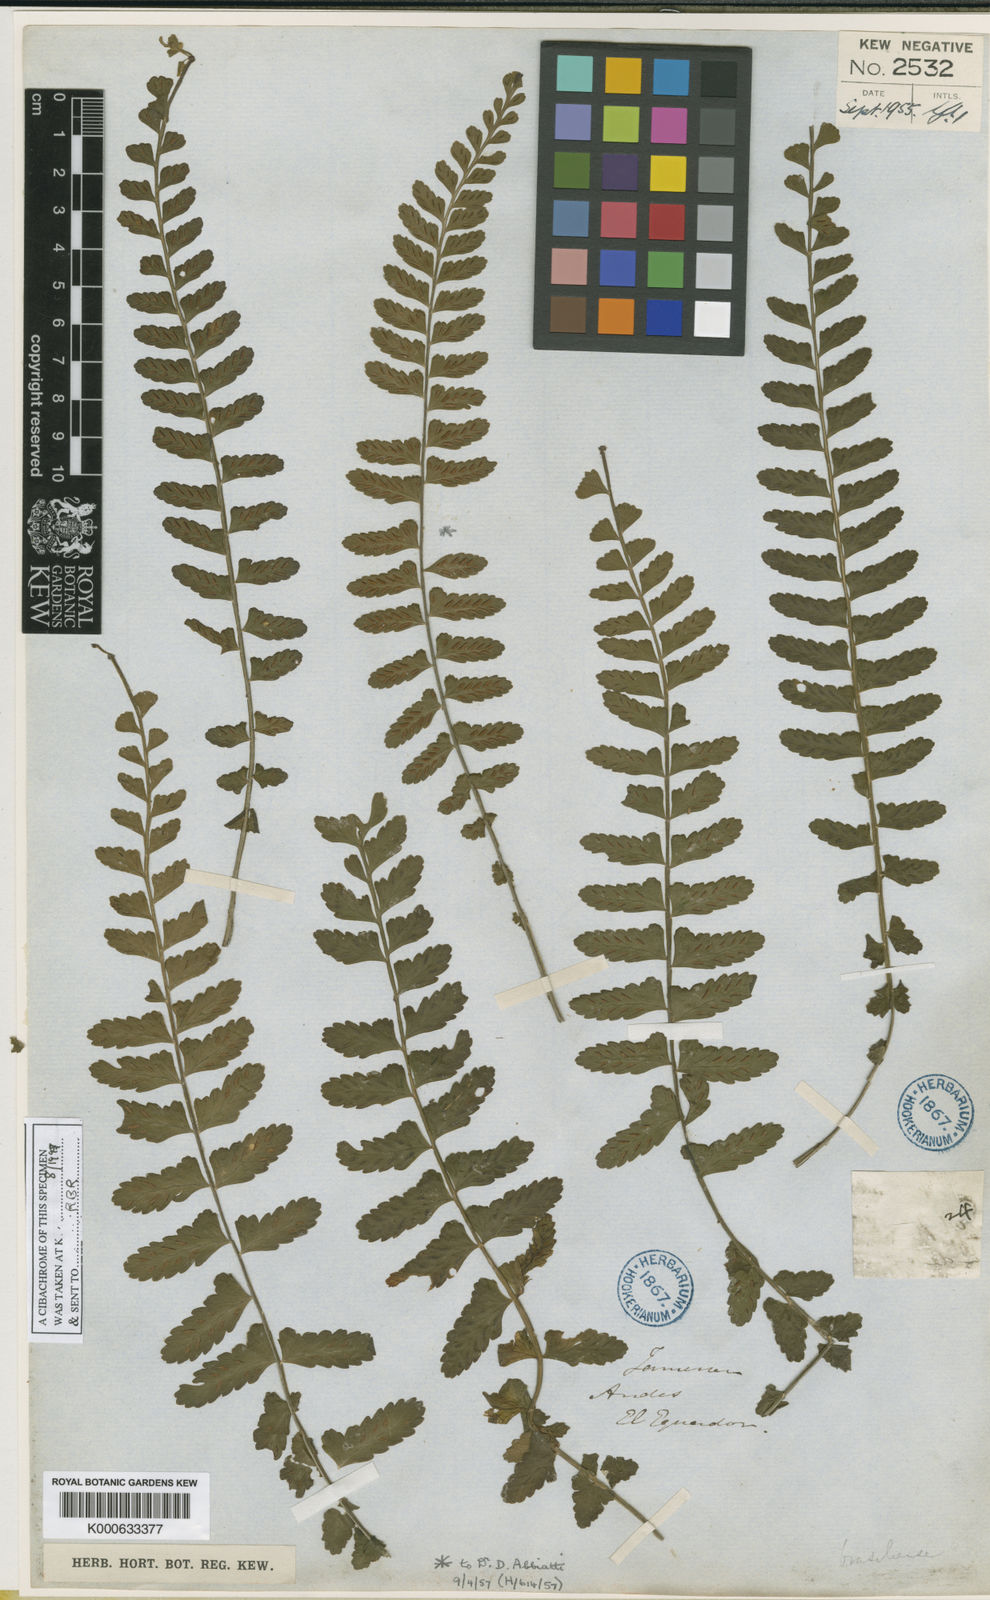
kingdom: Plantae
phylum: Tracheophyta
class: Polypodiopsida
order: Polypodiales
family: Aspleniaceae
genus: Asplenium
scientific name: Asplenium
